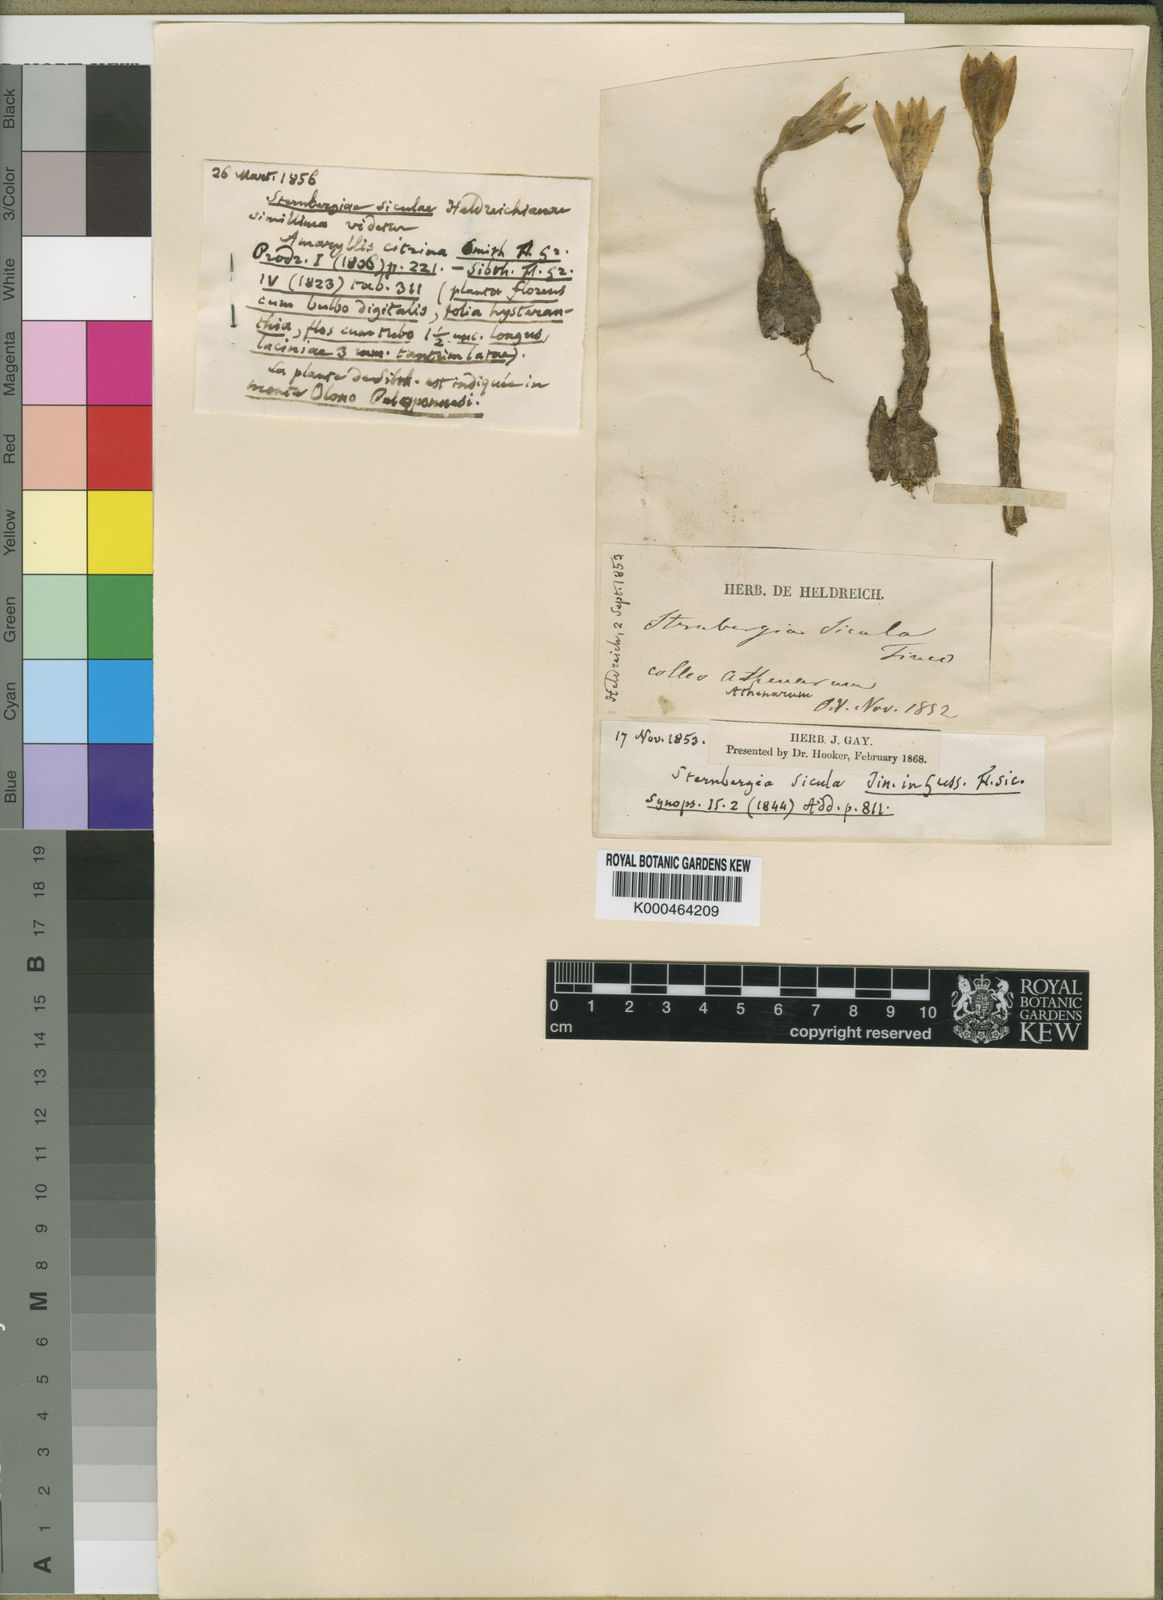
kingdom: Plantae
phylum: Tracheophyta
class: Liliopsida
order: Asparagales
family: Amaryllidaceae
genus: Sternbergia
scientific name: Sternbergia
